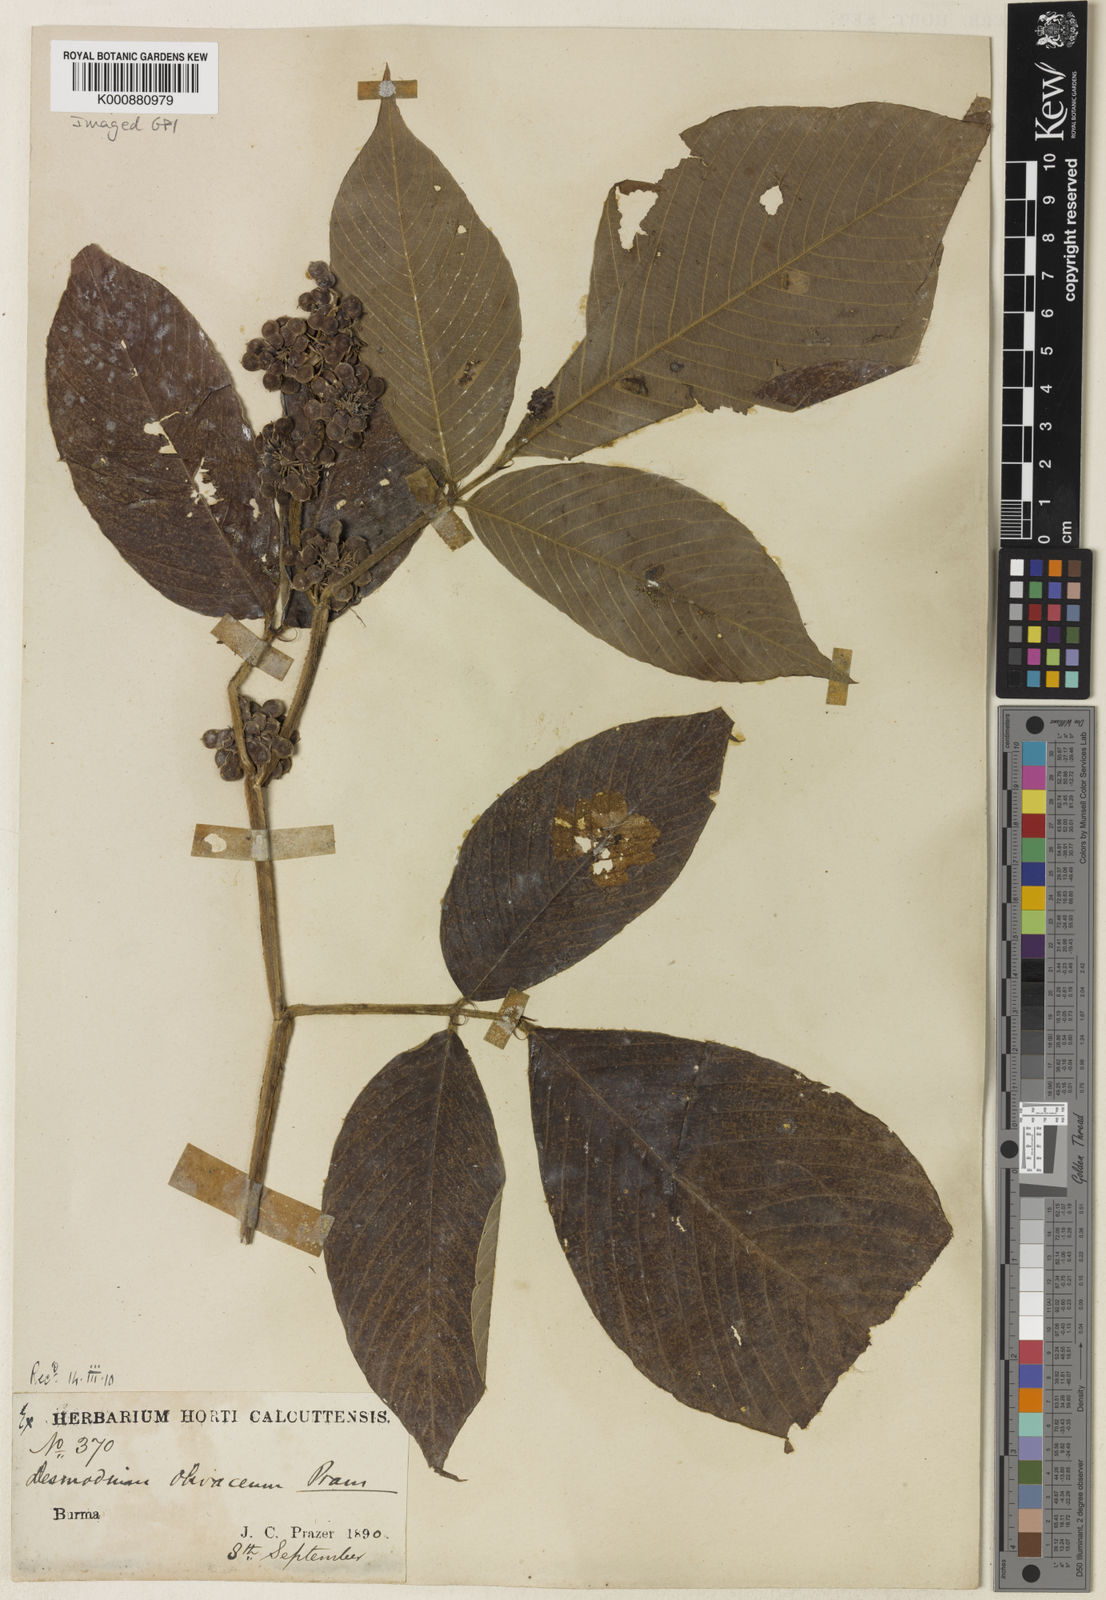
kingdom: Plantae
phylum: Tracheophyta
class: Magnoliopsida
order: Fabales
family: Fabaceae
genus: Dendrolobium
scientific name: Dendrolobium olivaceum
